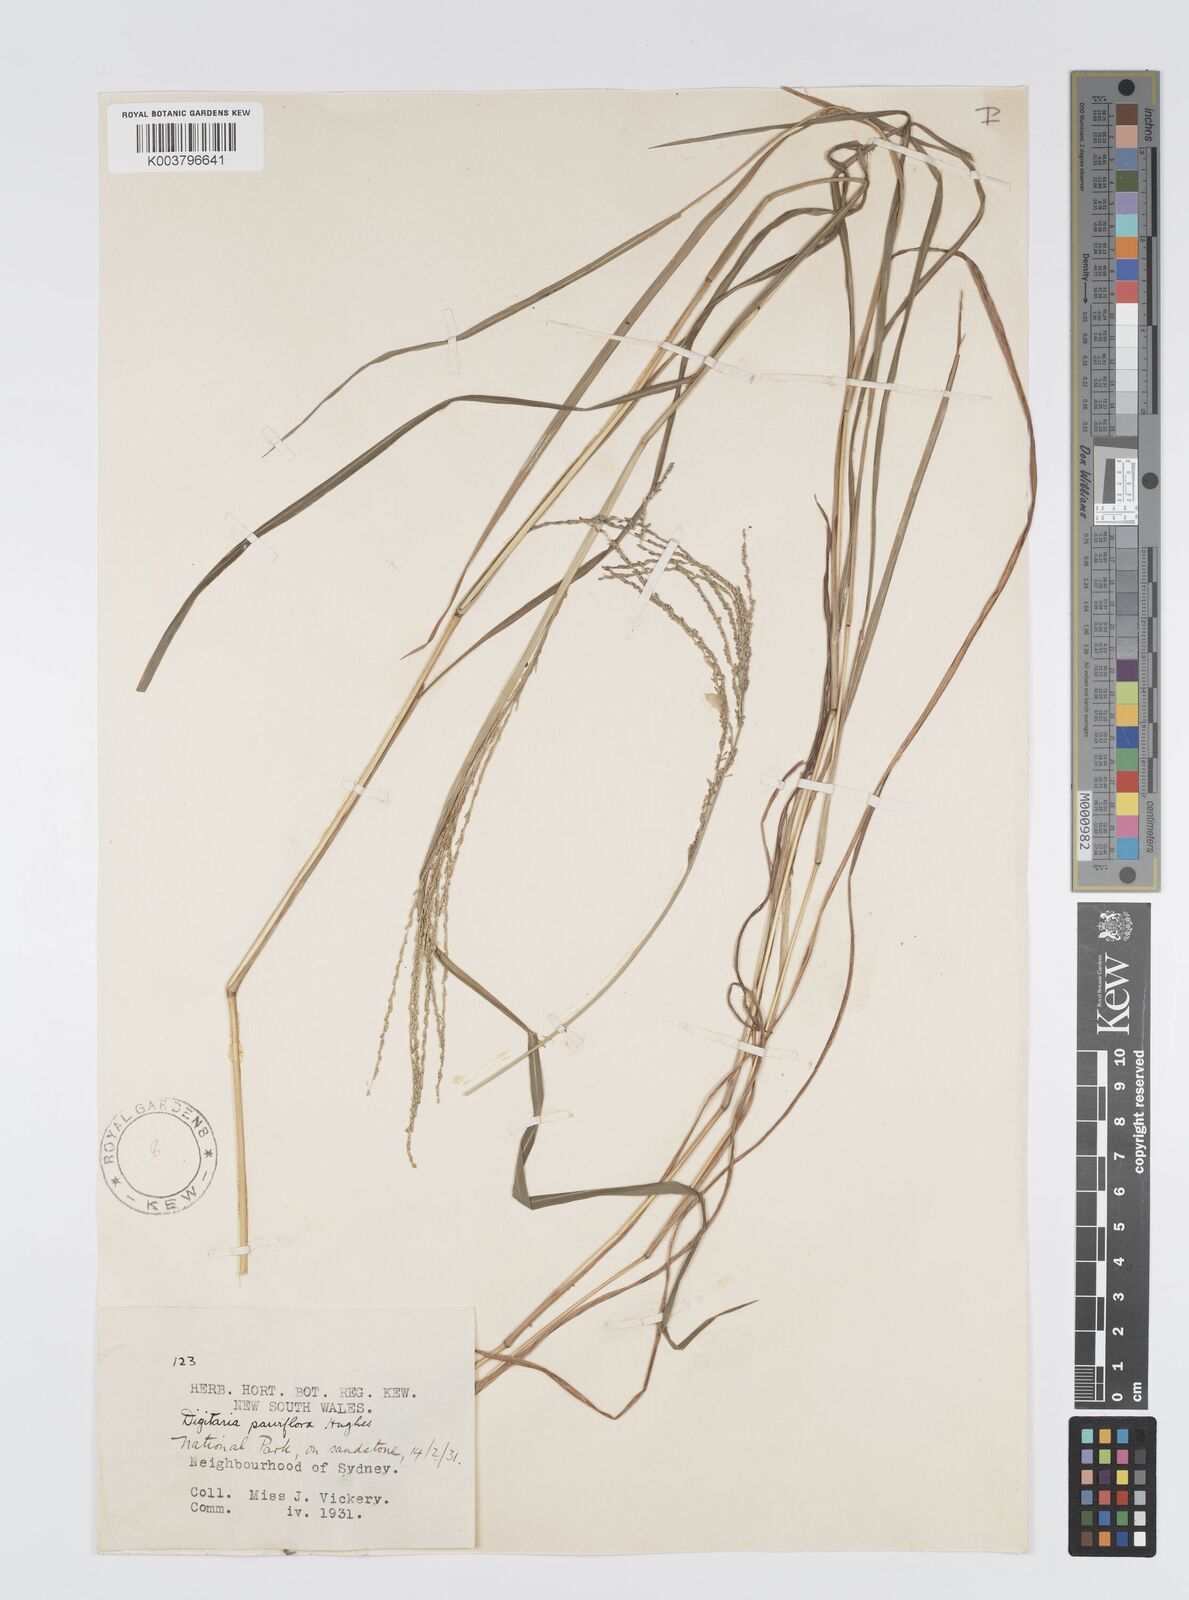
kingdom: Plantae
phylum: Tracheophyta
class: Liliopsida
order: Poales
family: Poaceae
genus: Digitaria
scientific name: Digitaria parviflora
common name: Small-flower finger grass
